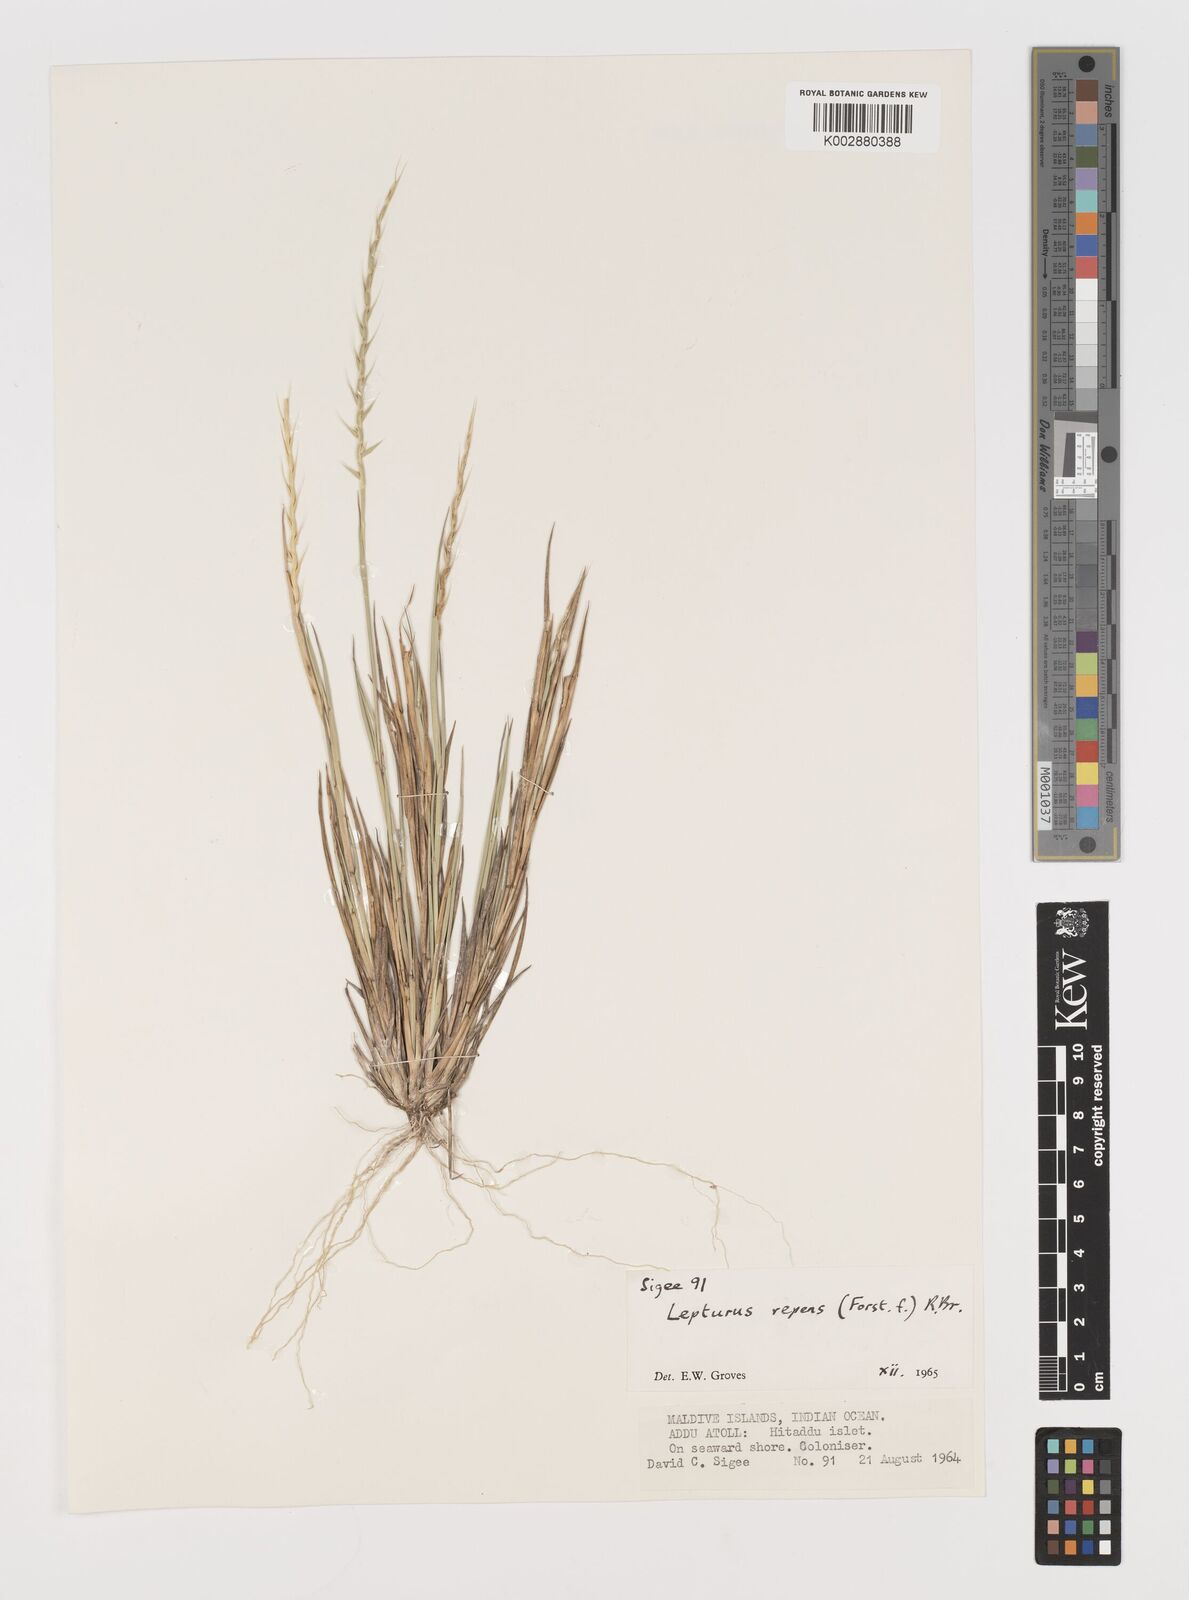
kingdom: Plantae
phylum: Tracheophyta
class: Liliopsida
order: Poales
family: Poaceae
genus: Lepturus
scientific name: Lepturus repens
